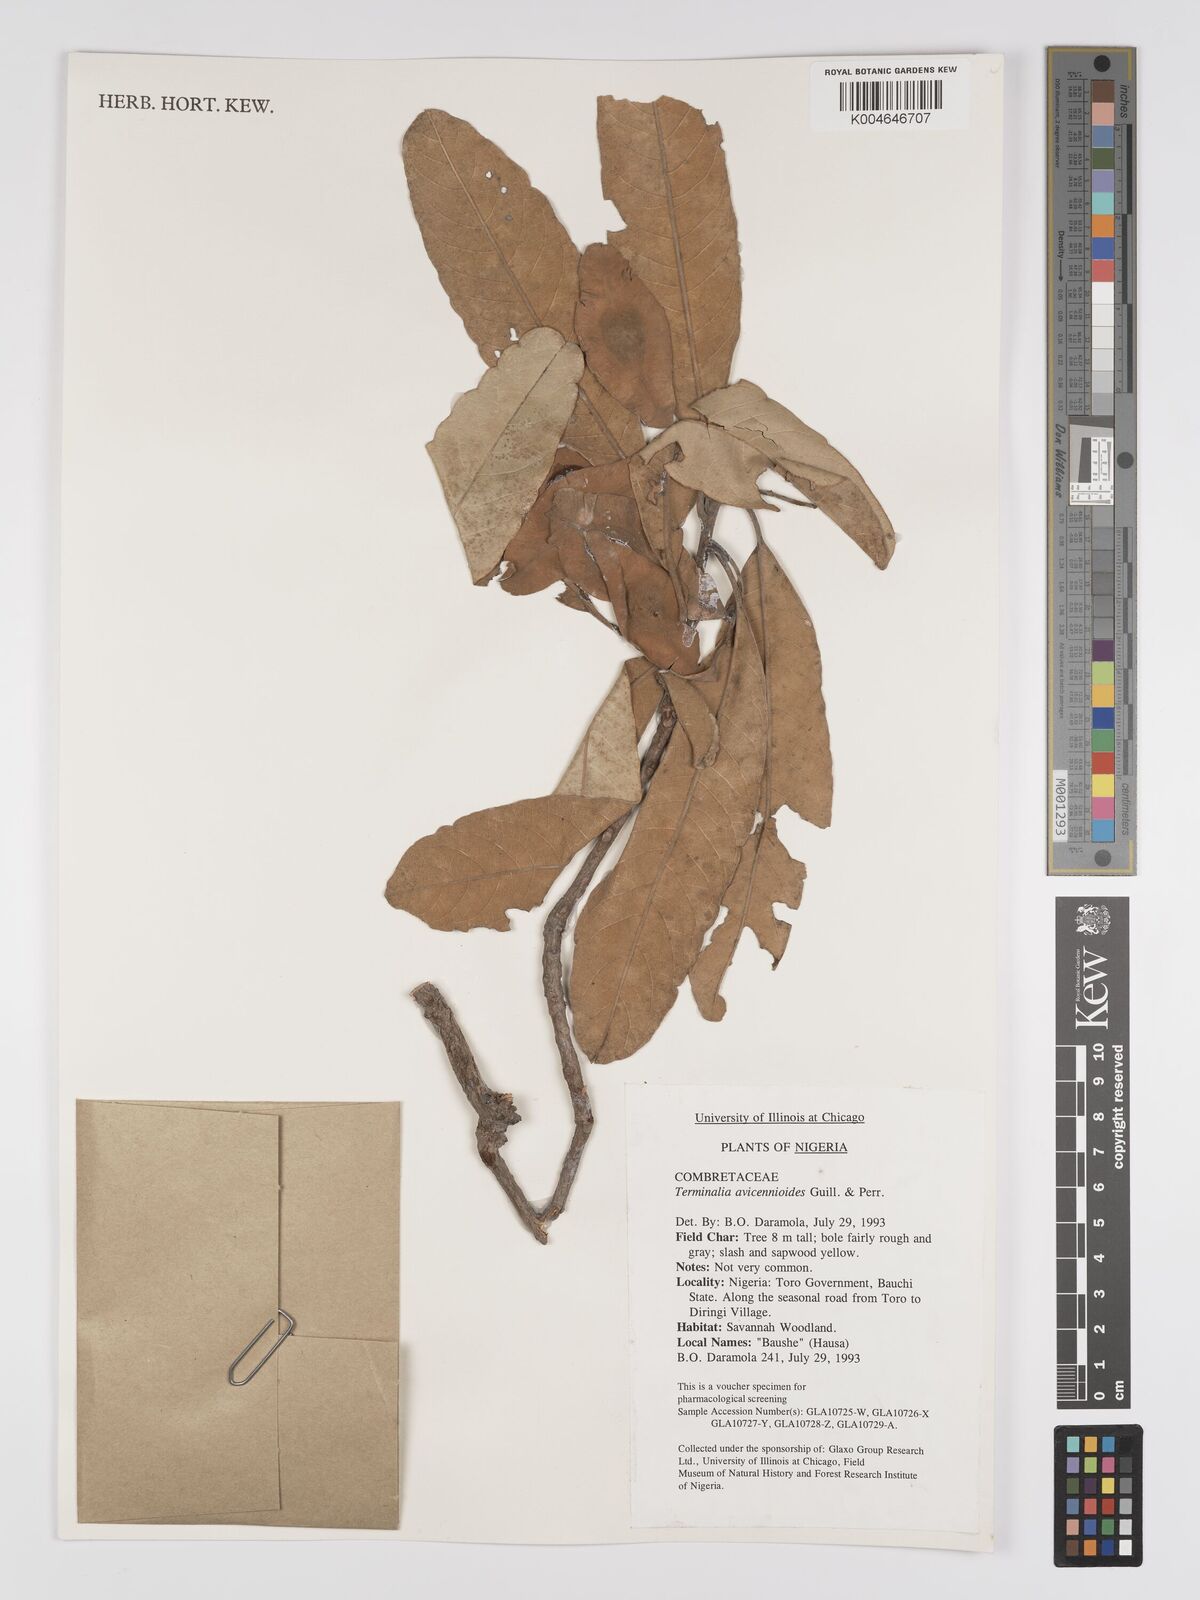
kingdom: Plantae
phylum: Tracheophyta
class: Magnoliopsida
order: Myrtales
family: Combretaceae
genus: Terminalia
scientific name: Terminalia avicennioides
